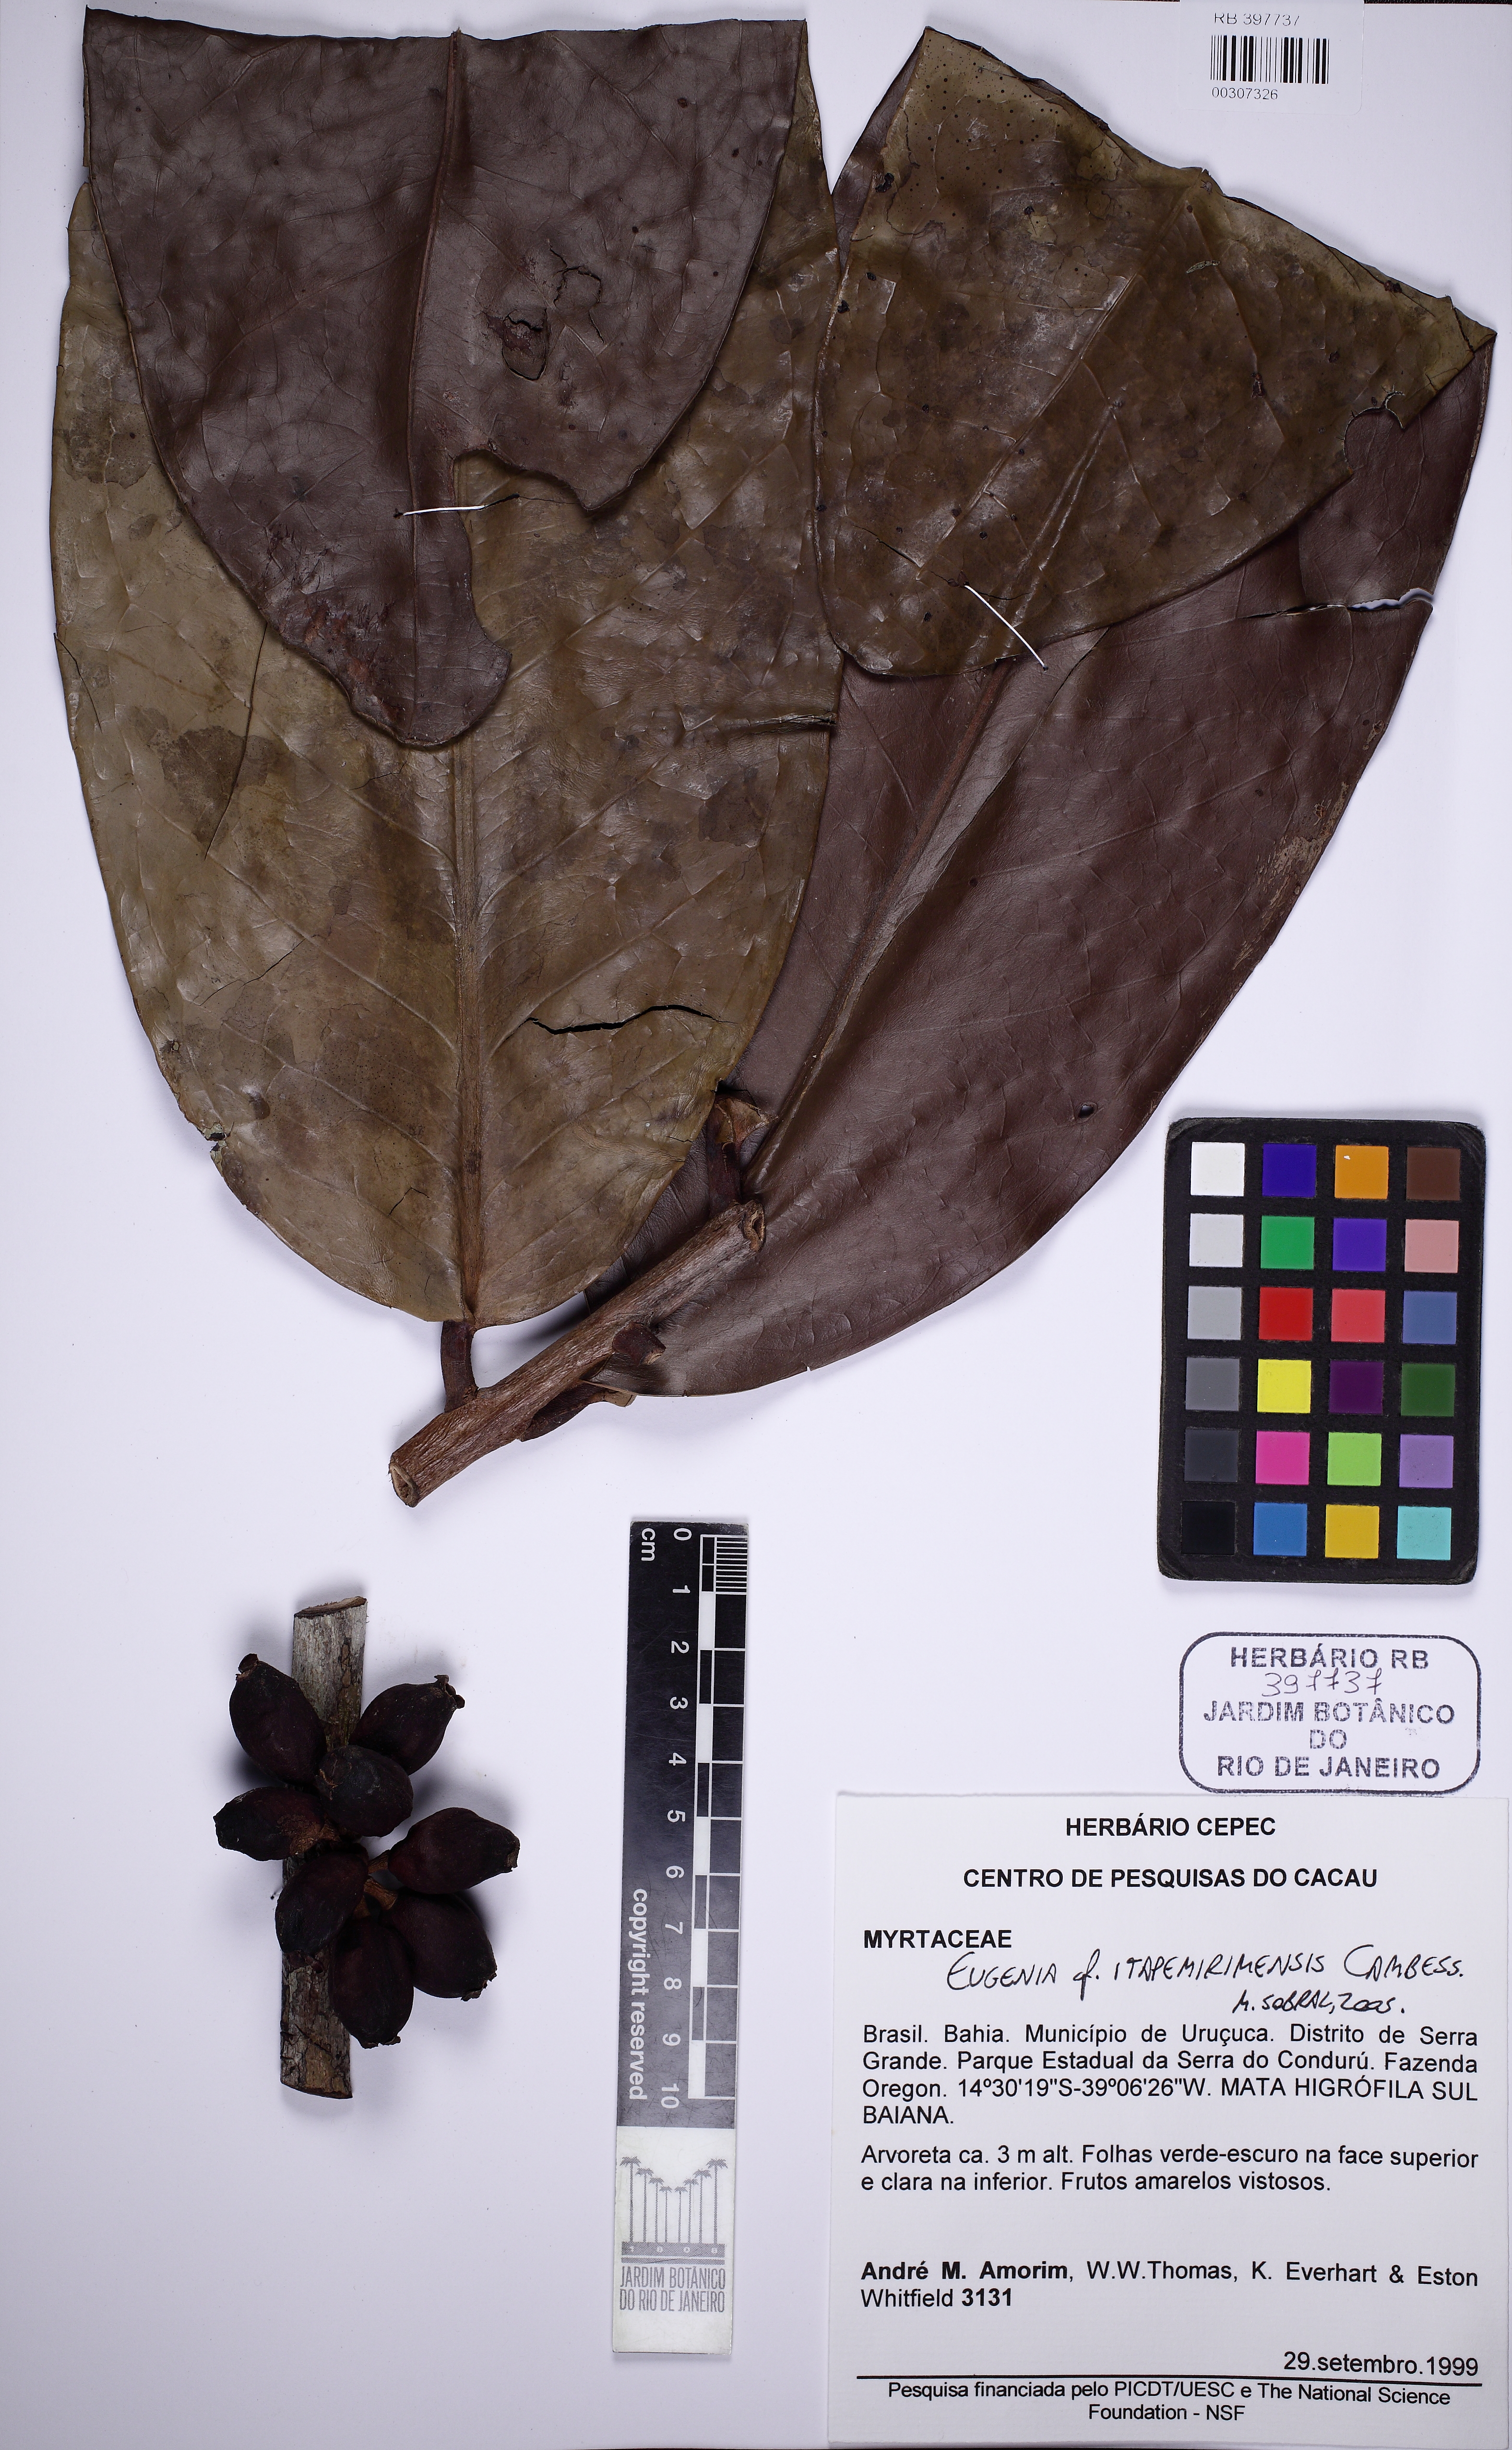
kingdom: Plantae
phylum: Tracheophyta
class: Magnoliopsida
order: Myrtales
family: Myrtaceae
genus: Eugenia
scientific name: Eugenia itapemirimensis
